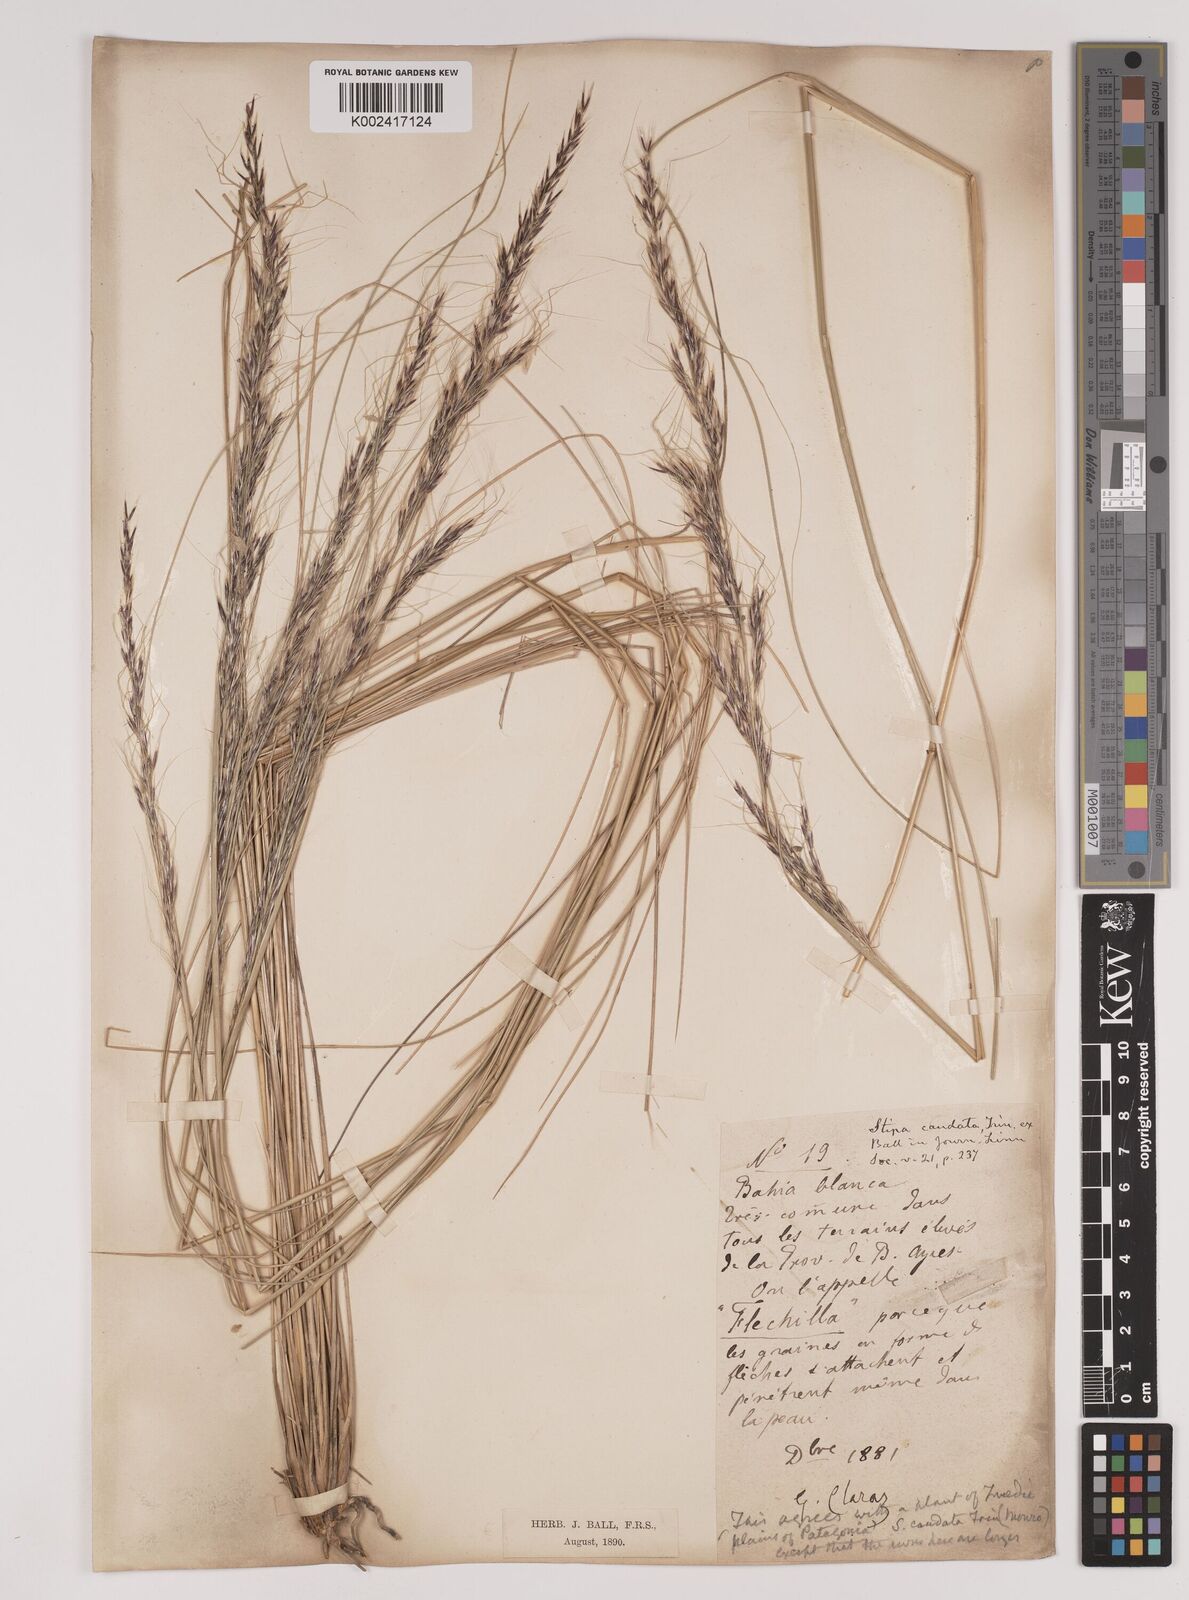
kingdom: Plantae
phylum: Tracheophyta
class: Liliopsida
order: Poales
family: Poaceae
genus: Stipa
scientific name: Stipa
